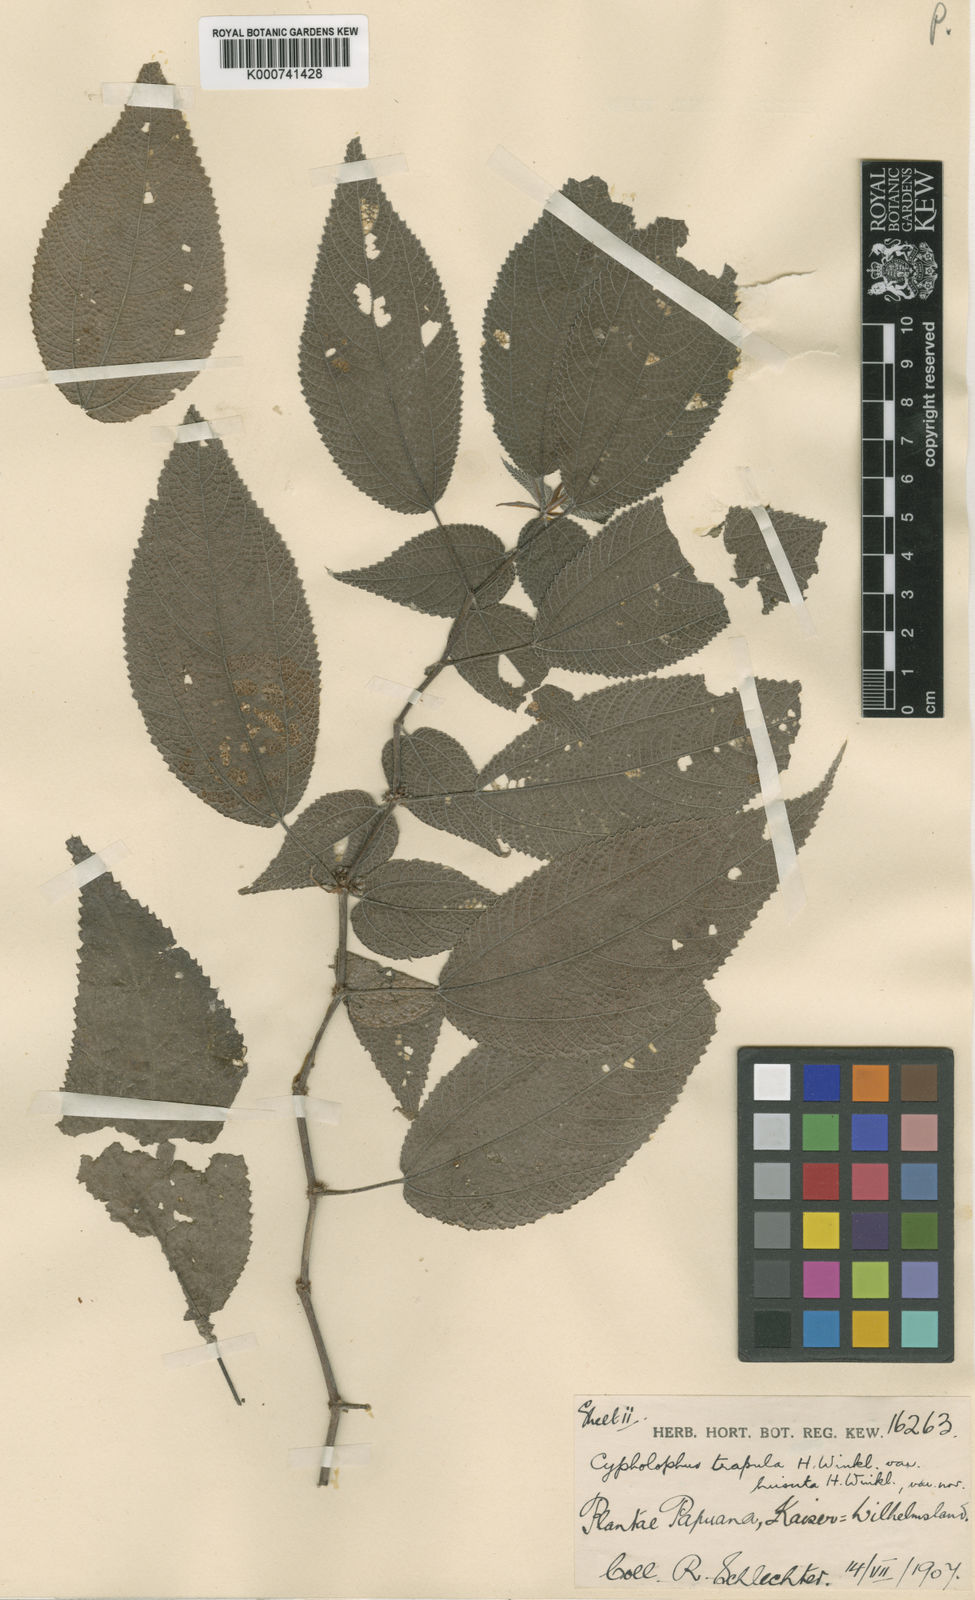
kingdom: Plantae
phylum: Tracheophyta
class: Magnoliopsida
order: Rosales
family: Urticaceae
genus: Cypholophus
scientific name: Cypholophus trapula
